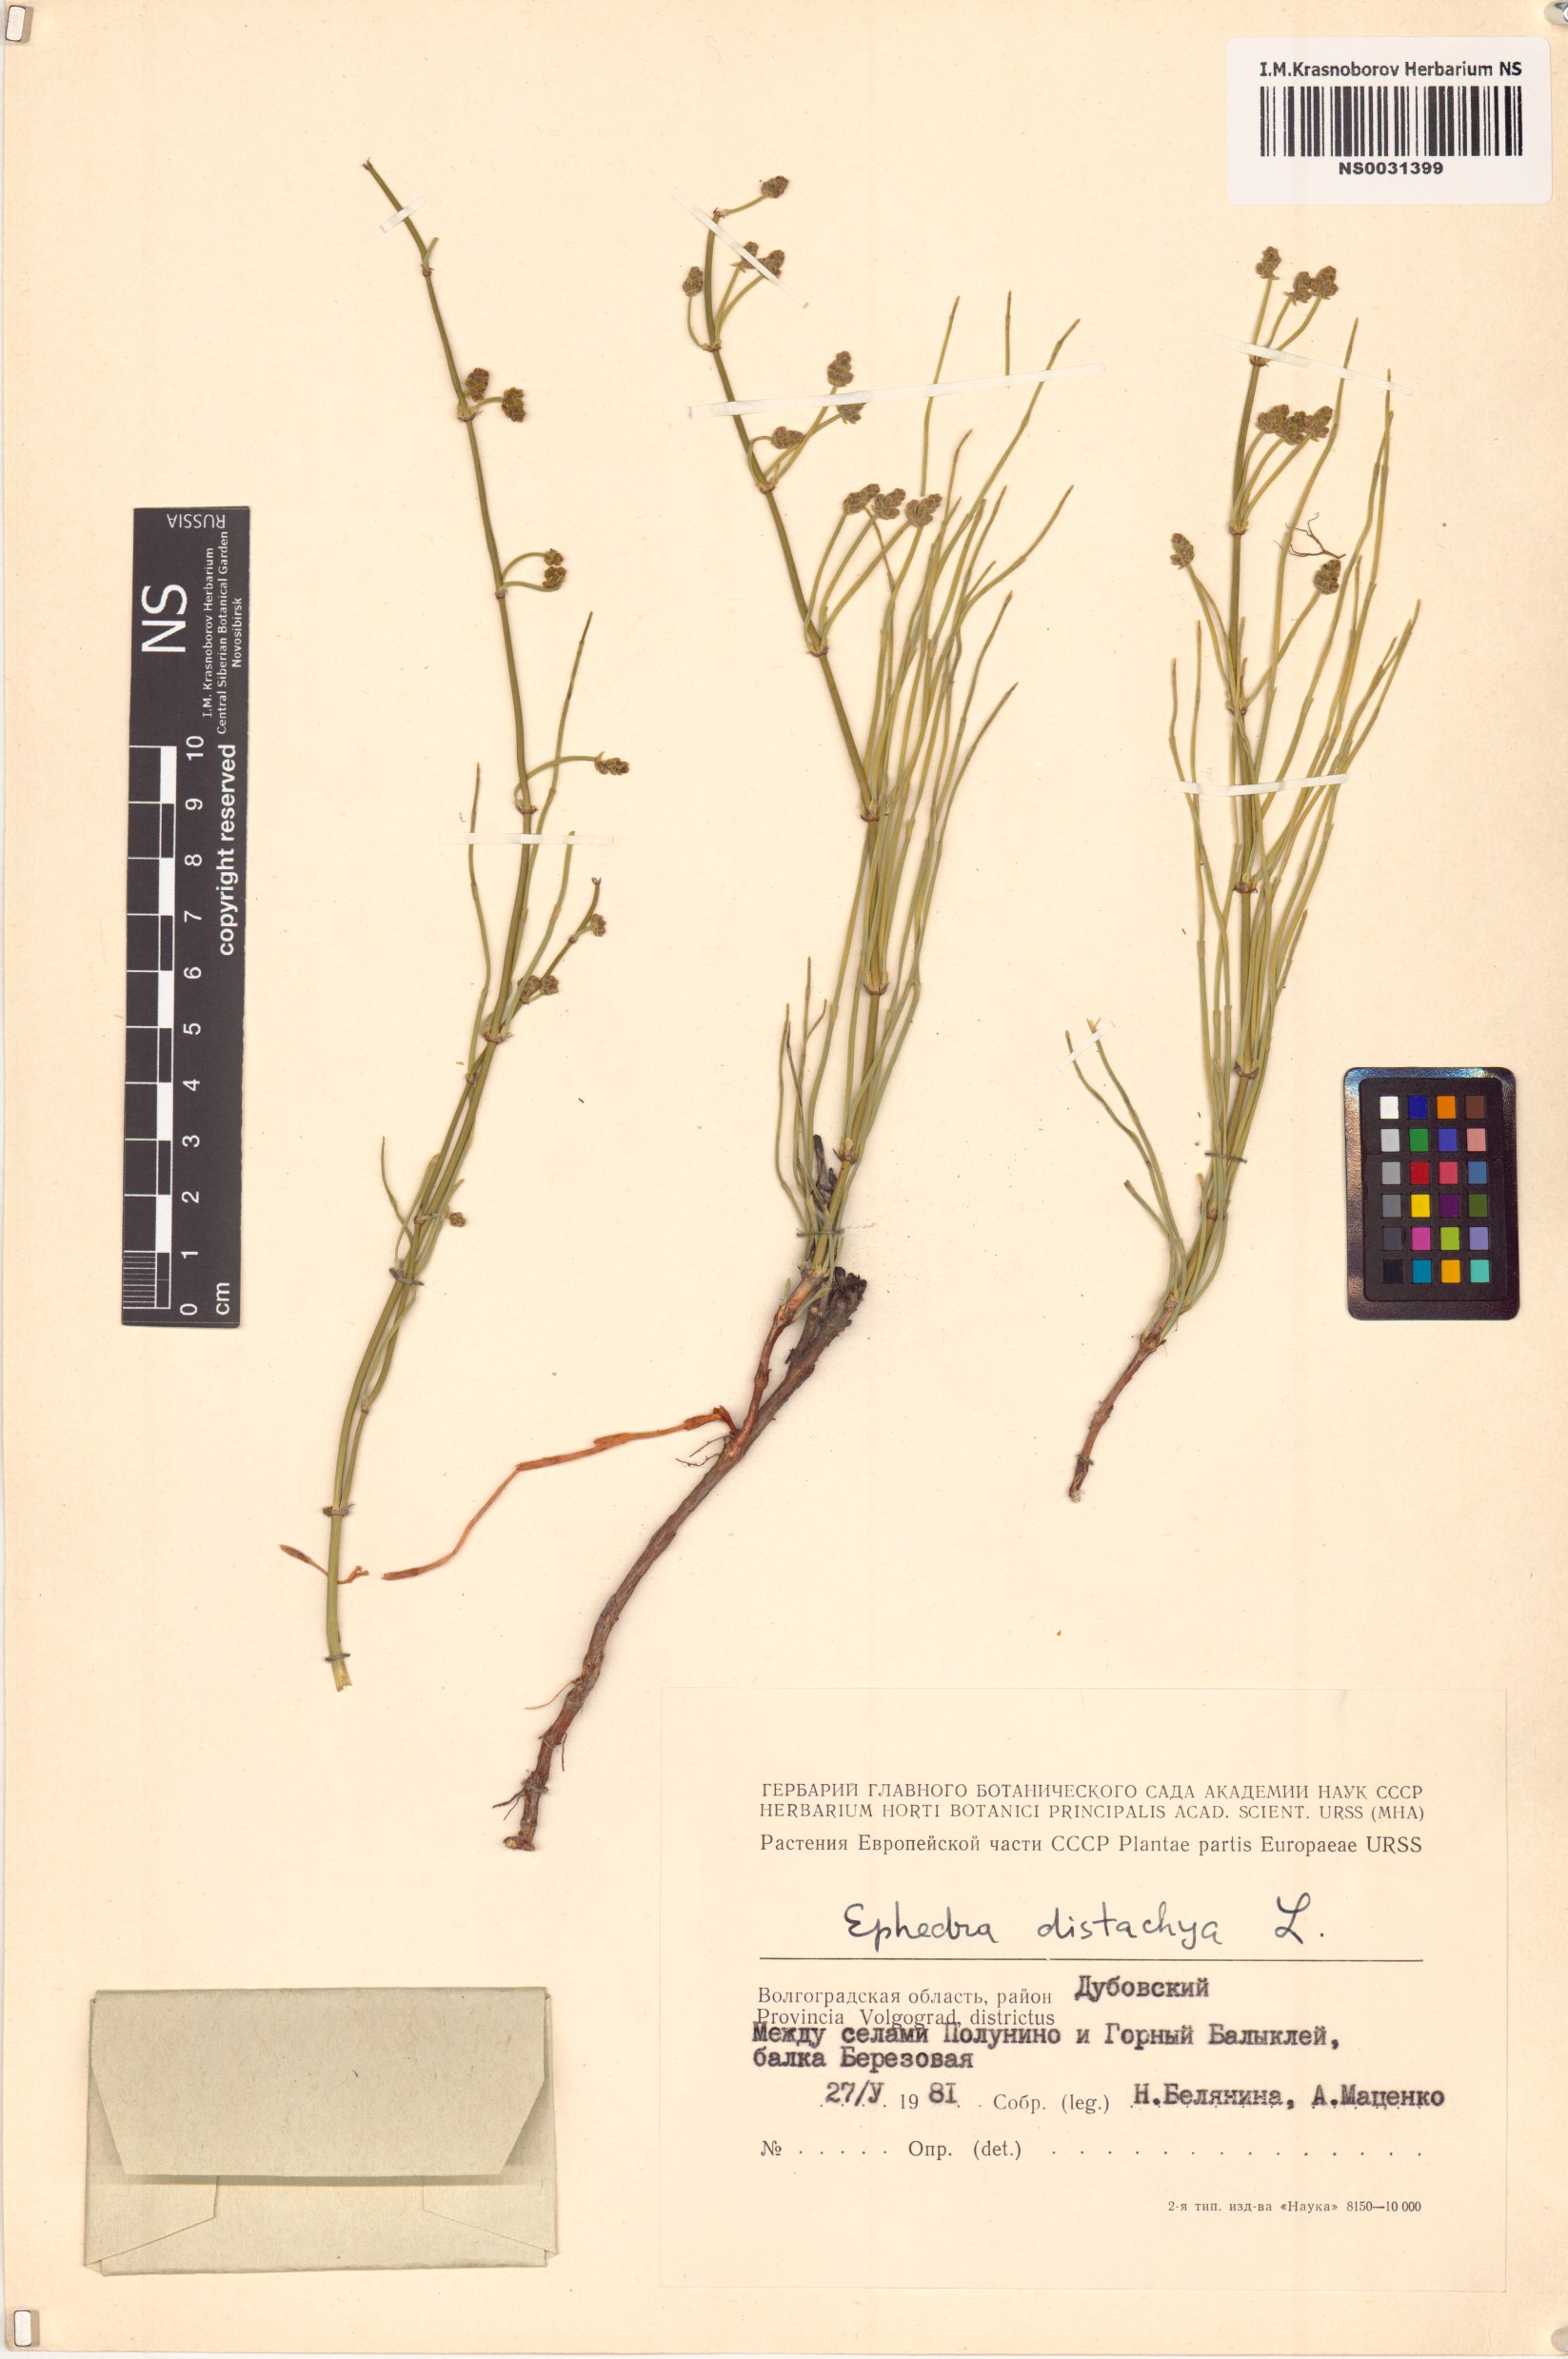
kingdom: Plantae
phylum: Tracheophyta
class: Gnetopsida
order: Ephedrales
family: Ephedraceae
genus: Ephedra
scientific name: Ephedra distachya
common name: Sea grape
